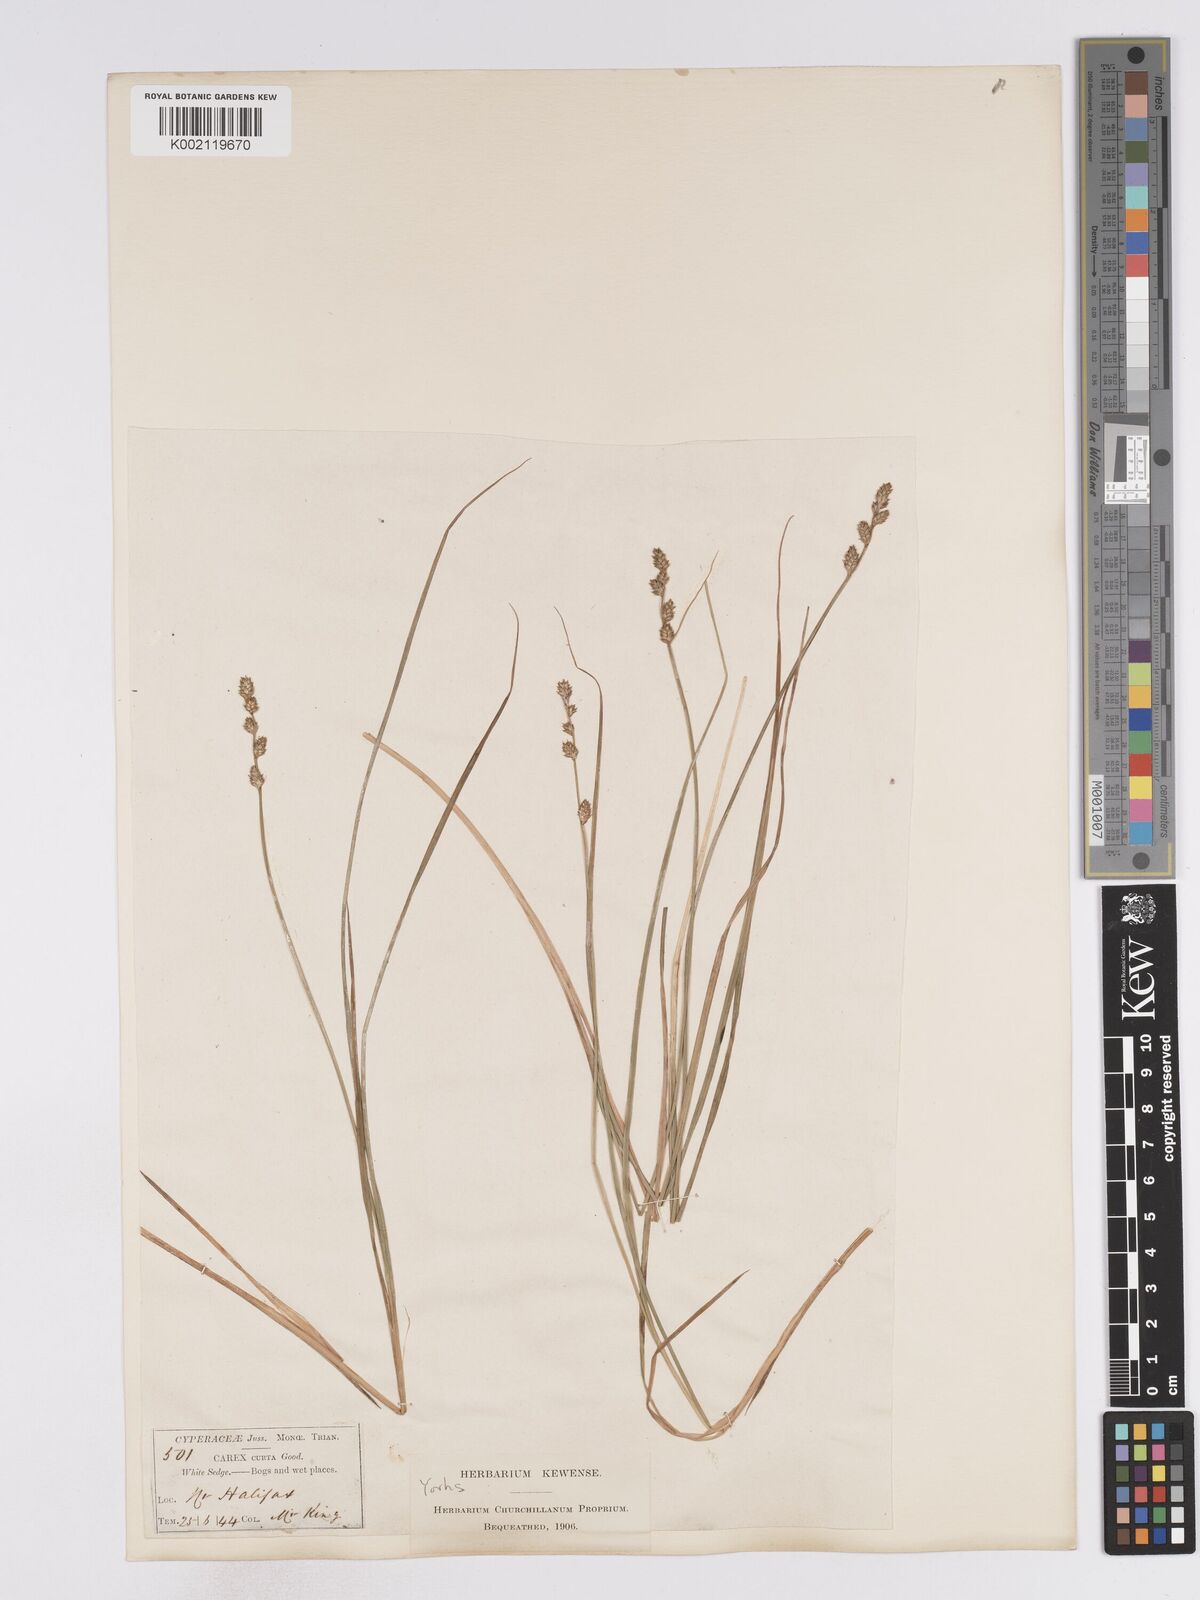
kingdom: Plantae
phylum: Tracheophyta
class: Liliopsida
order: Poales
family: Cyperaceae
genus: Carex
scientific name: Carex curta
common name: White sedge
